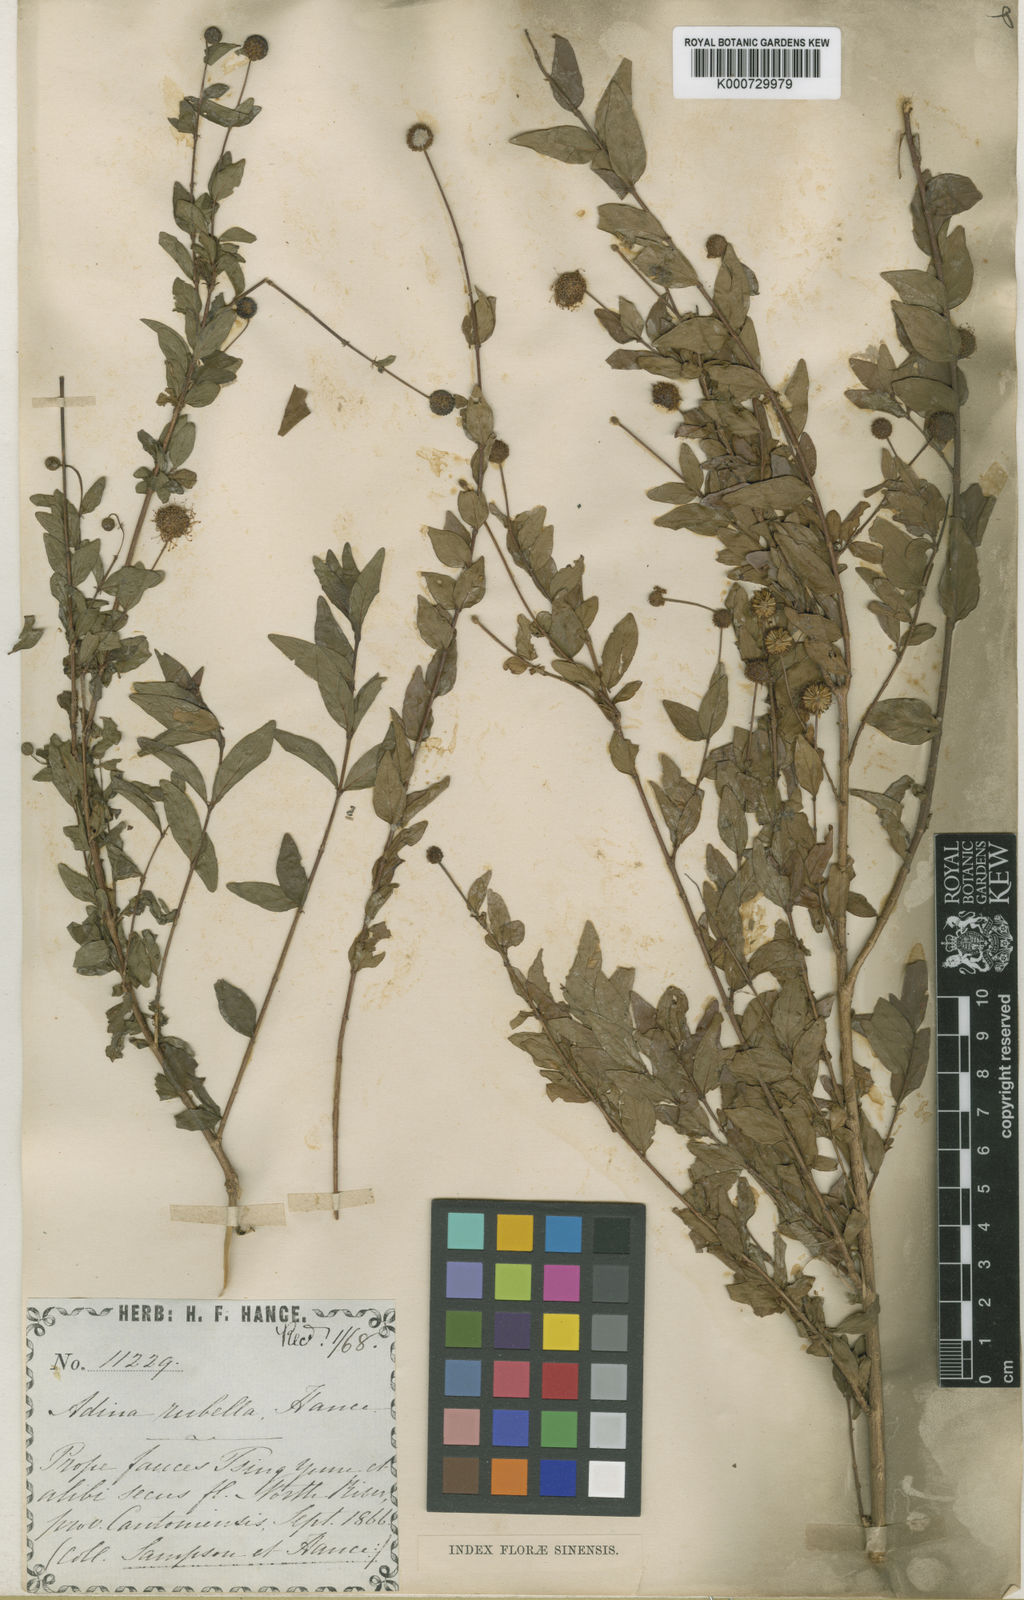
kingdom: Plantae
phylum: Tracheophyta
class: Magnoliopsida
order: Gentianales
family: Rubiaceae
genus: Adina
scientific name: Adina rubella
